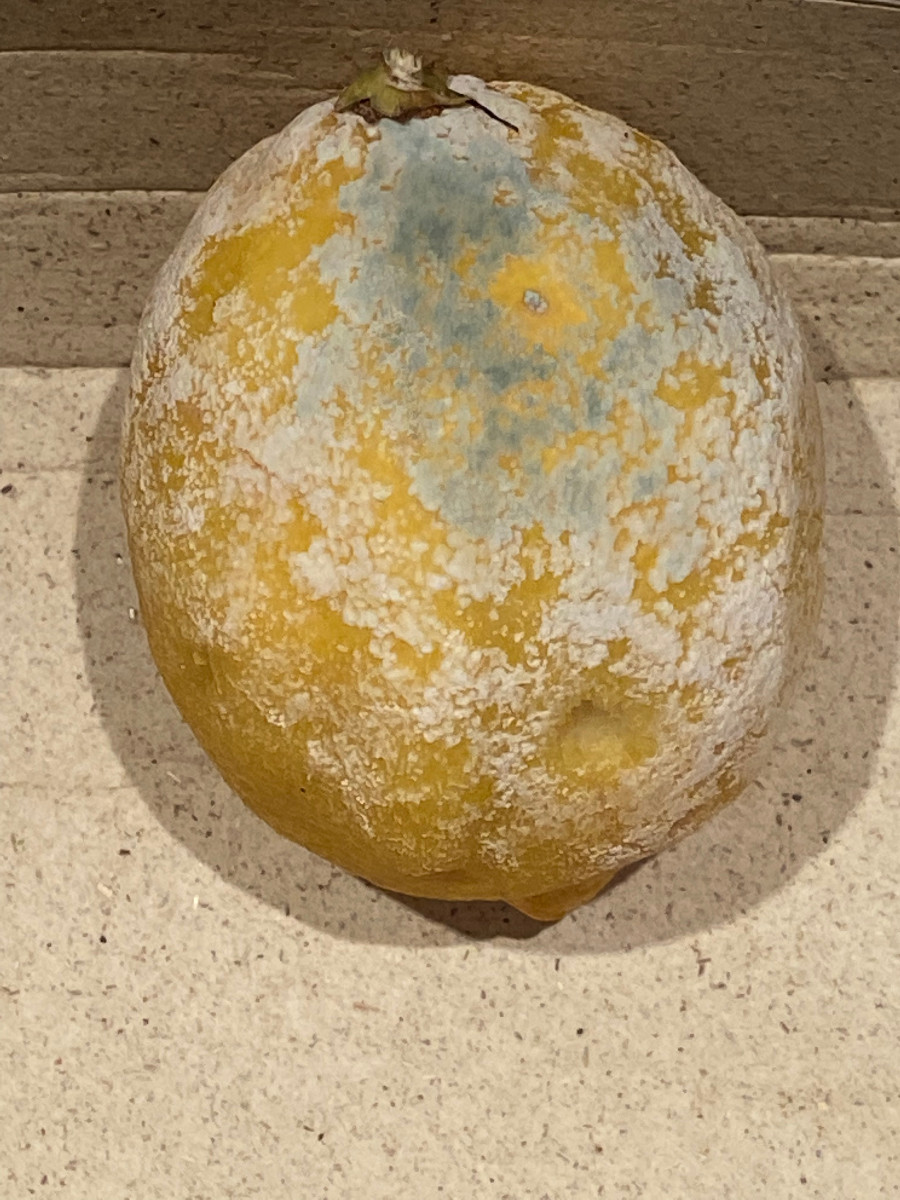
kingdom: Fungi
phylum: Ascomycota
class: Eurotiomycetes
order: Eurotiales
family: Aspergillaceae
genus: Penicillium
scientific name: Penicillium digitatum
